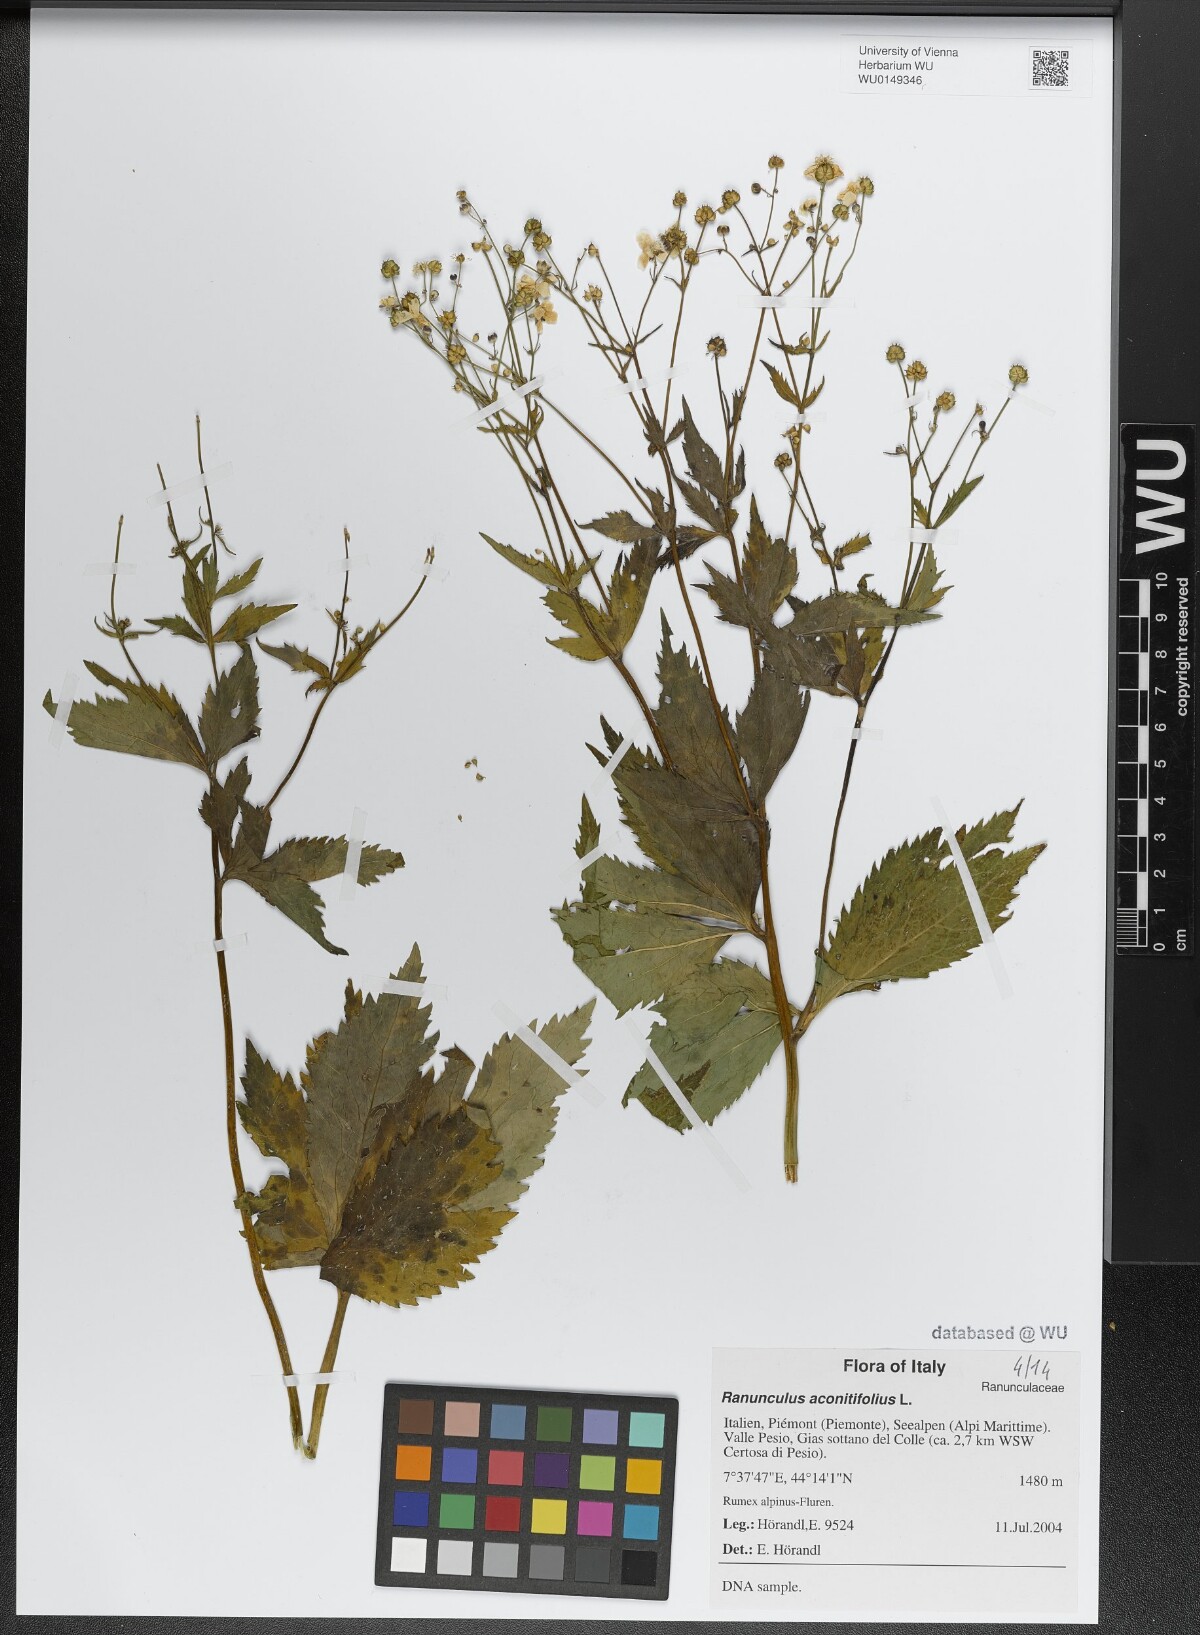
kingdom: Plantae
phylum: Tracheophyta
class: Magnoliopsida
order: Ranunculales
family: Ranunculaceae
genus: Ranunculus
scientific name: Ranunculus aconitifolius
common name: Aconite-leaved buttercup
